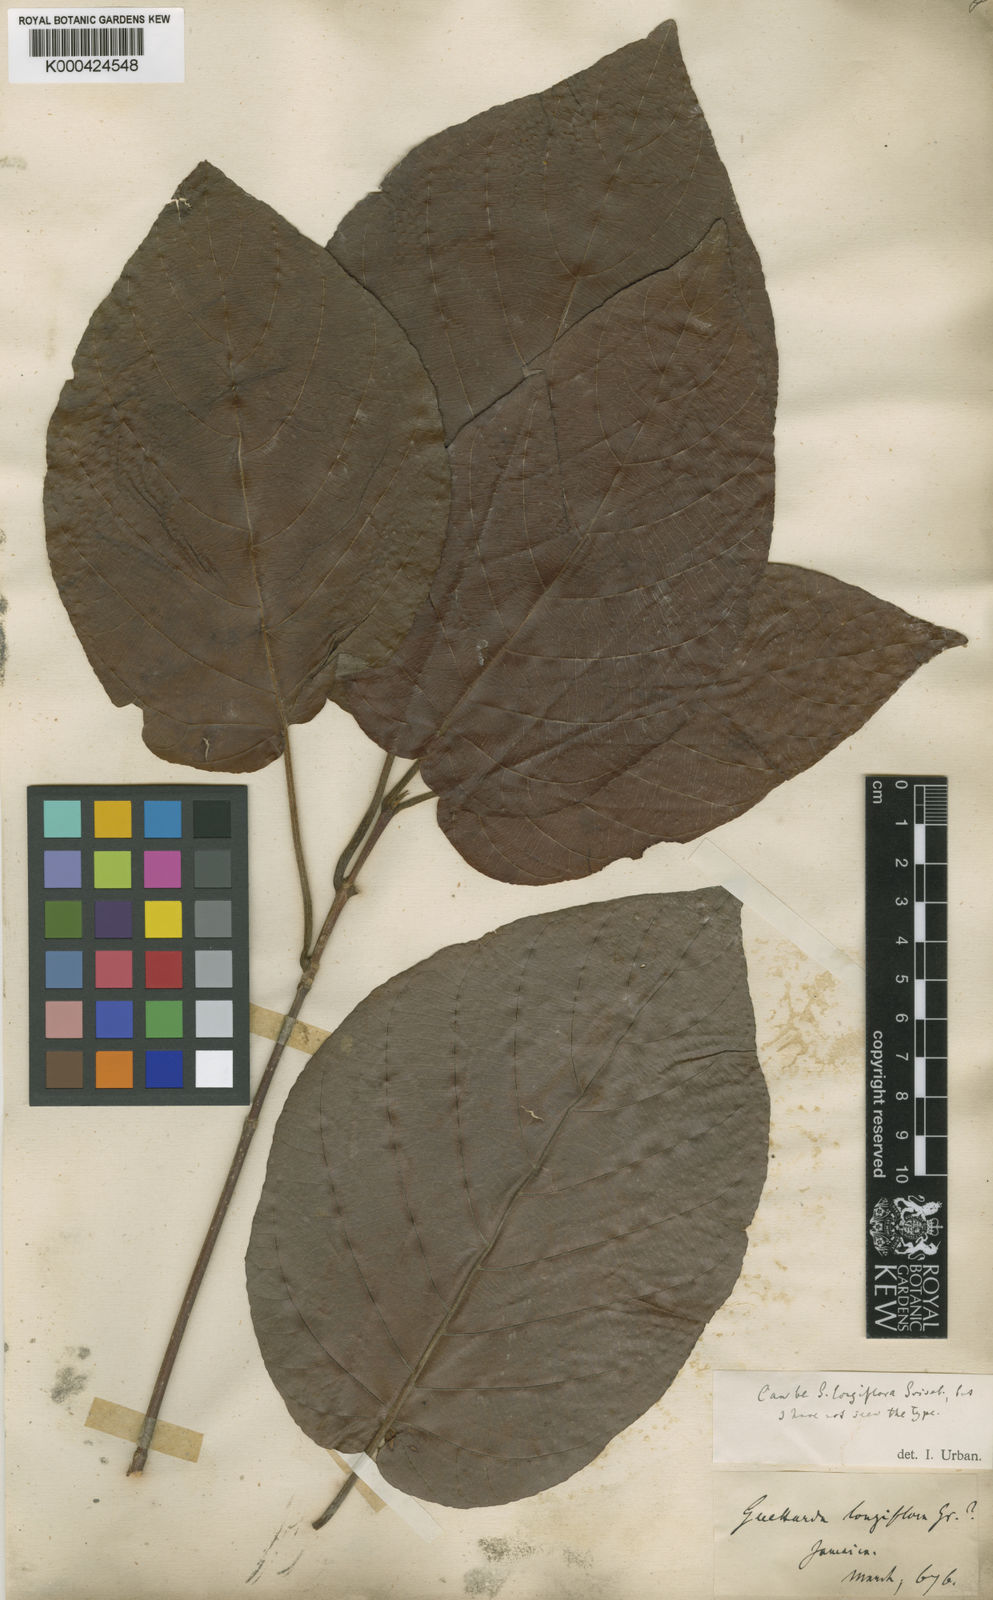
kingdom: Plantae
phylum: Tracheophyta
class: Magnoliopsida
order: Gentianales
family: Rubiaceae
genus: Guettarda
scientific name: Guettarda longiflora
